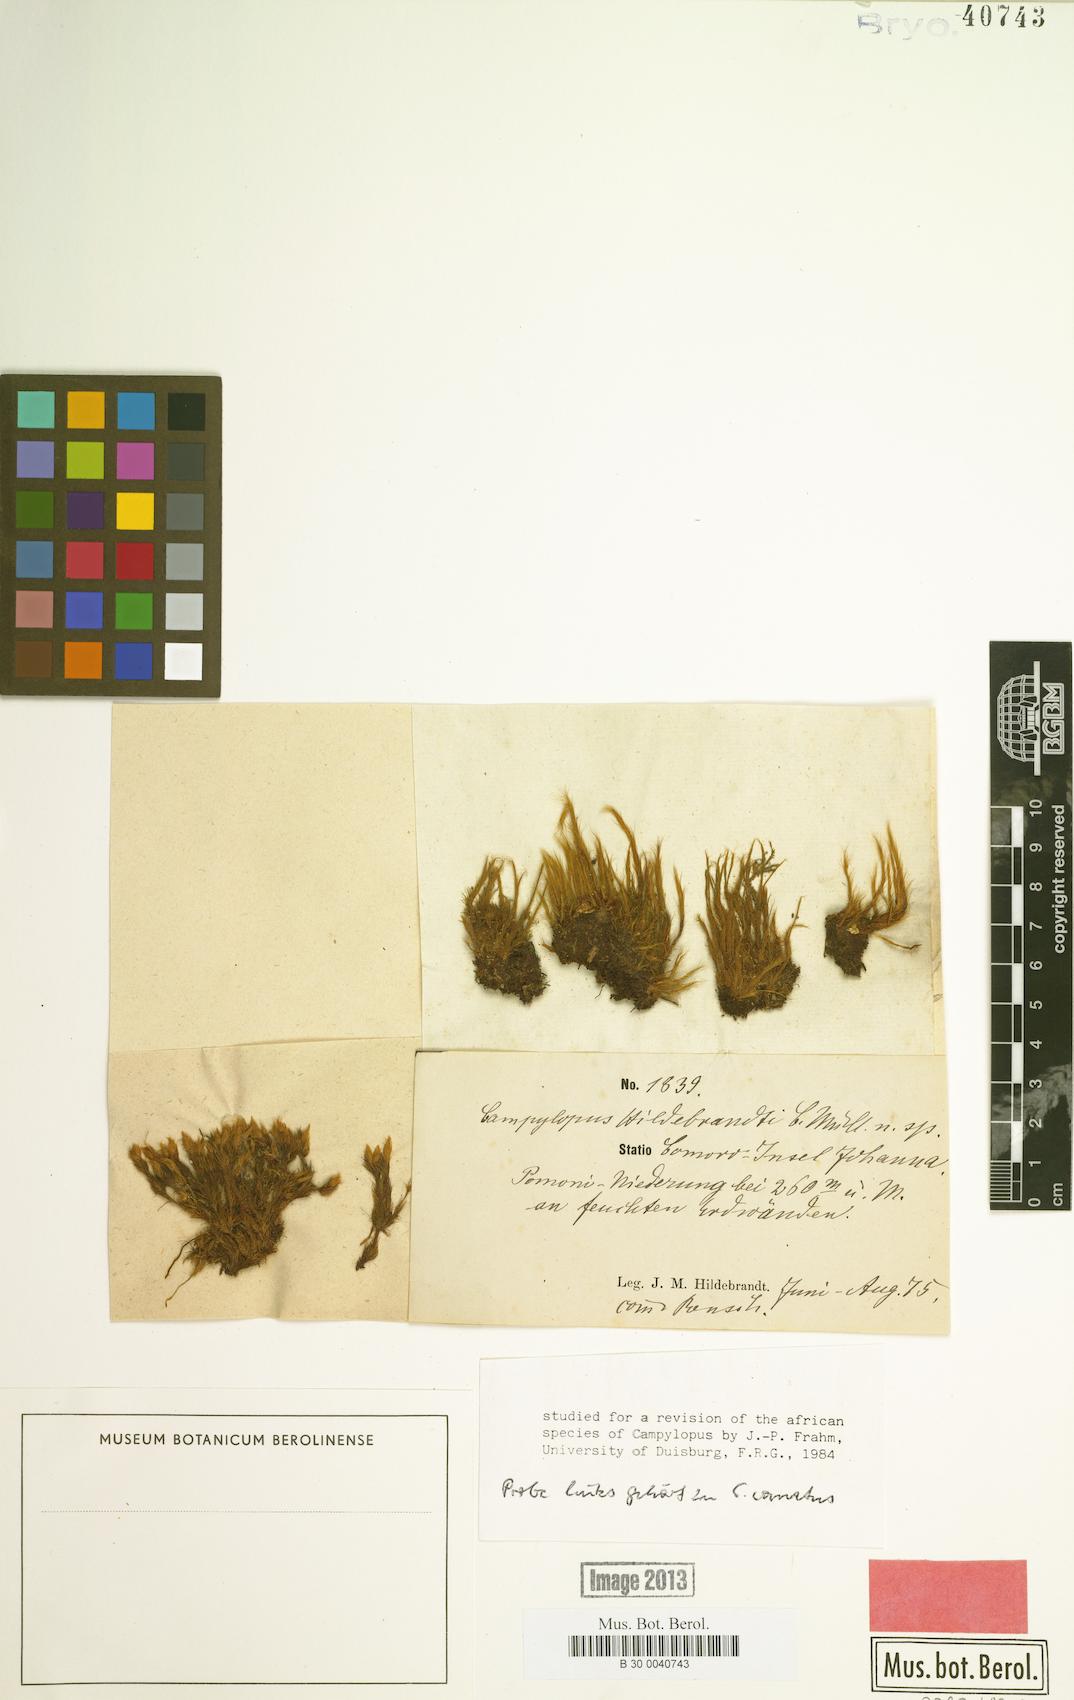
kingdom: Plantae
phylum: Bryophyta
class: Bryopsida
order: Dicranales
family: Leucobryaceae
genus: Campylopus
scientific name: Campylopus hildebrandtii
